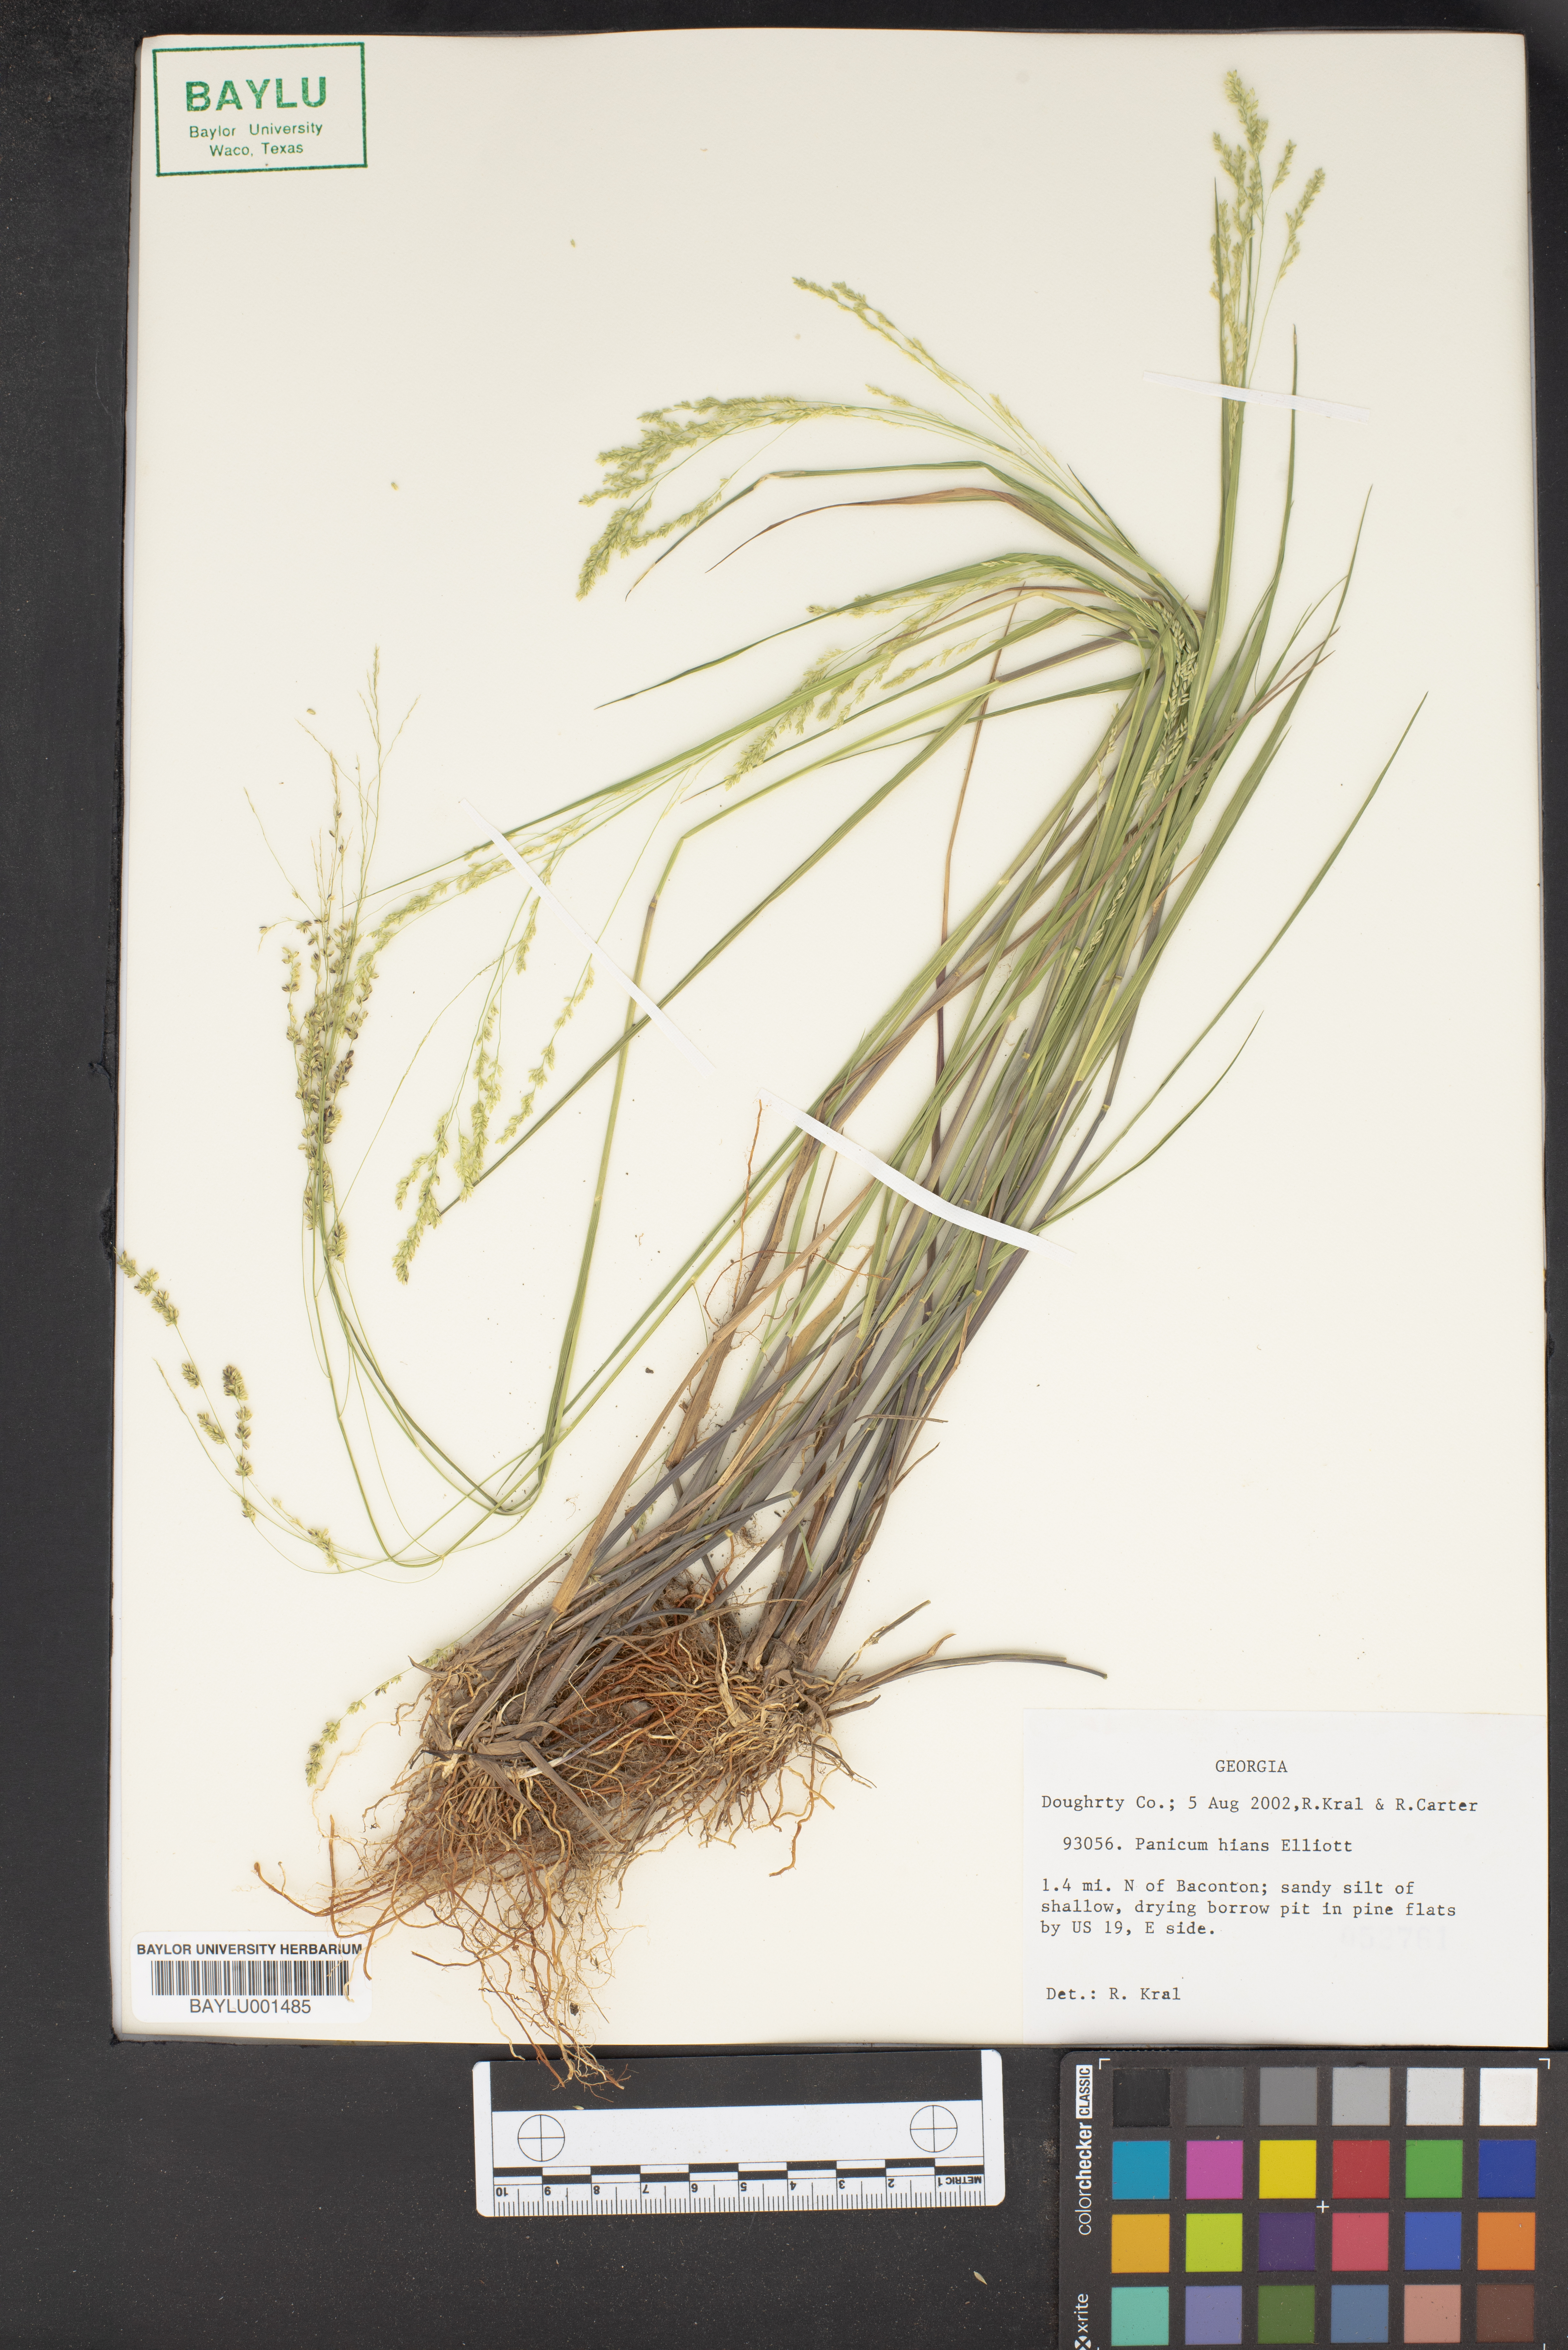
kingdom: Plantae
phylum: Tracheophyta
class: Liliopsida
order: Poales
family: Poaceae
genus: Coleataenia
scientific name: Coleataenia stenodes
